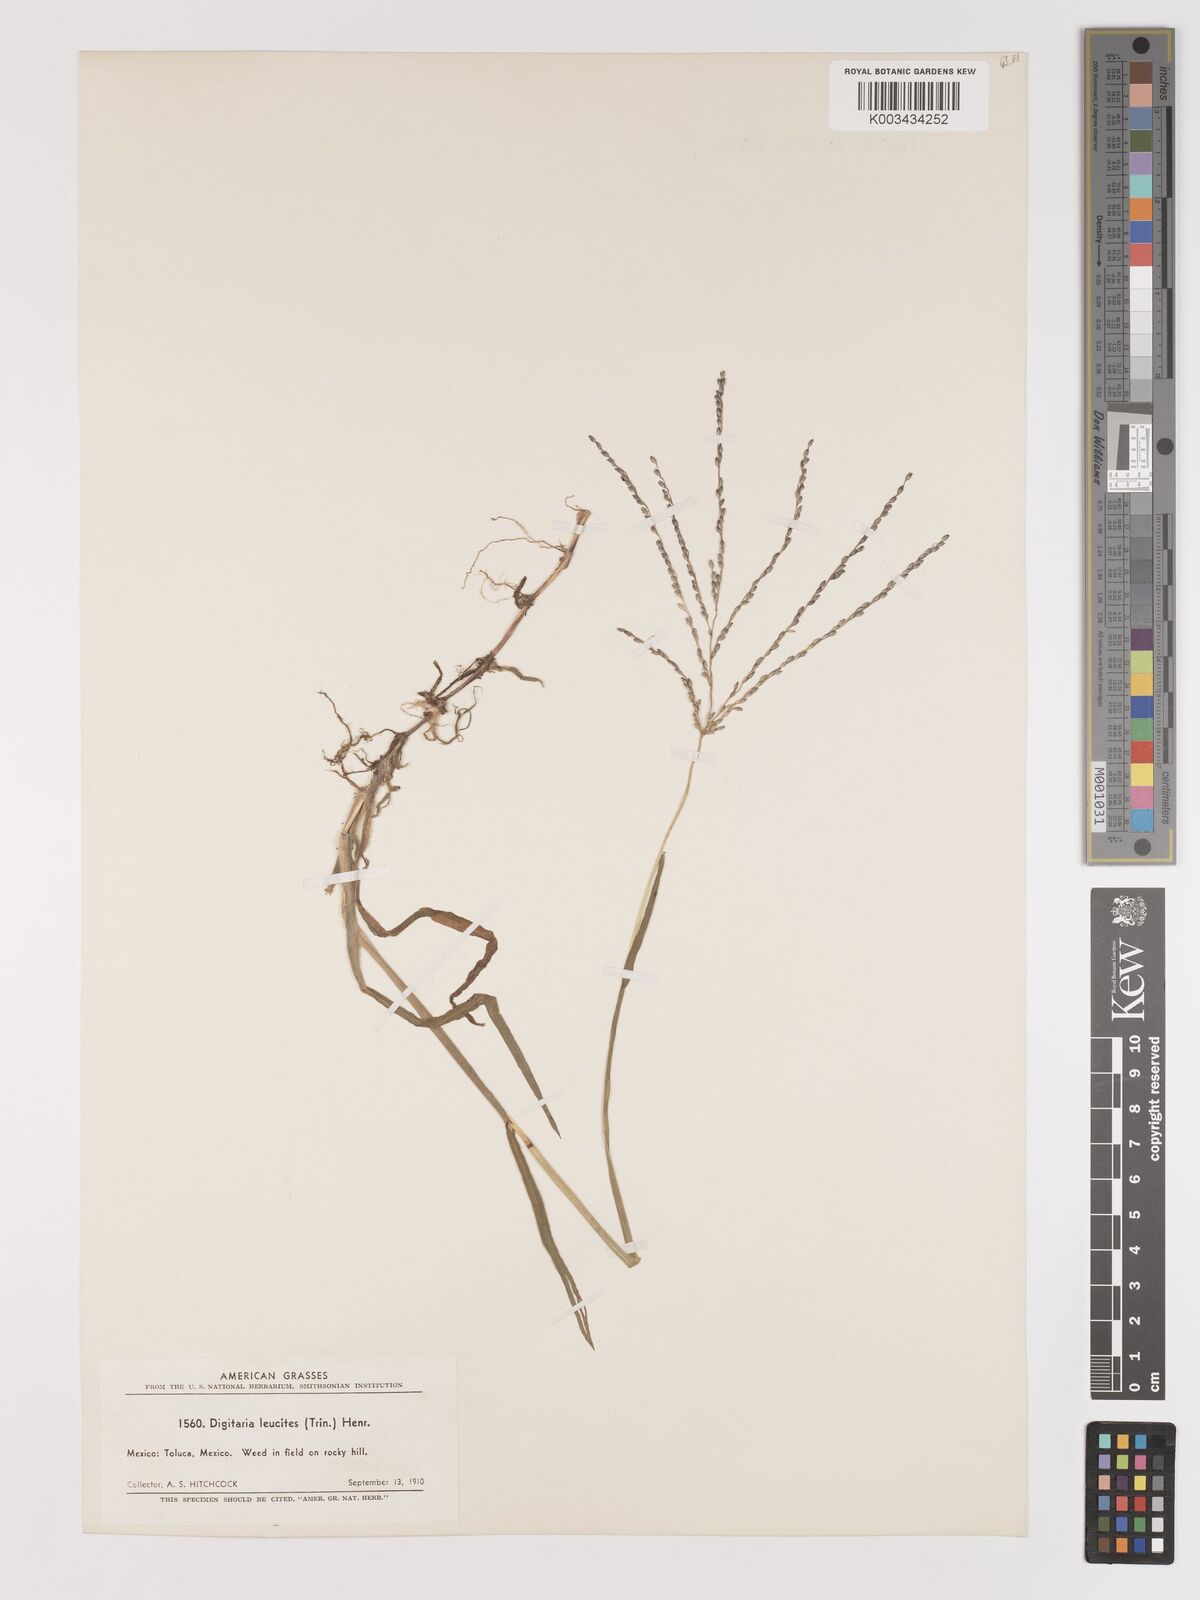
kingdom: Plantae
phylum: Tracheophyta
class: Liliopsida
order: Poales
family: Poaceae
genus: Digitaria
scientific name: Digitaria leucites
